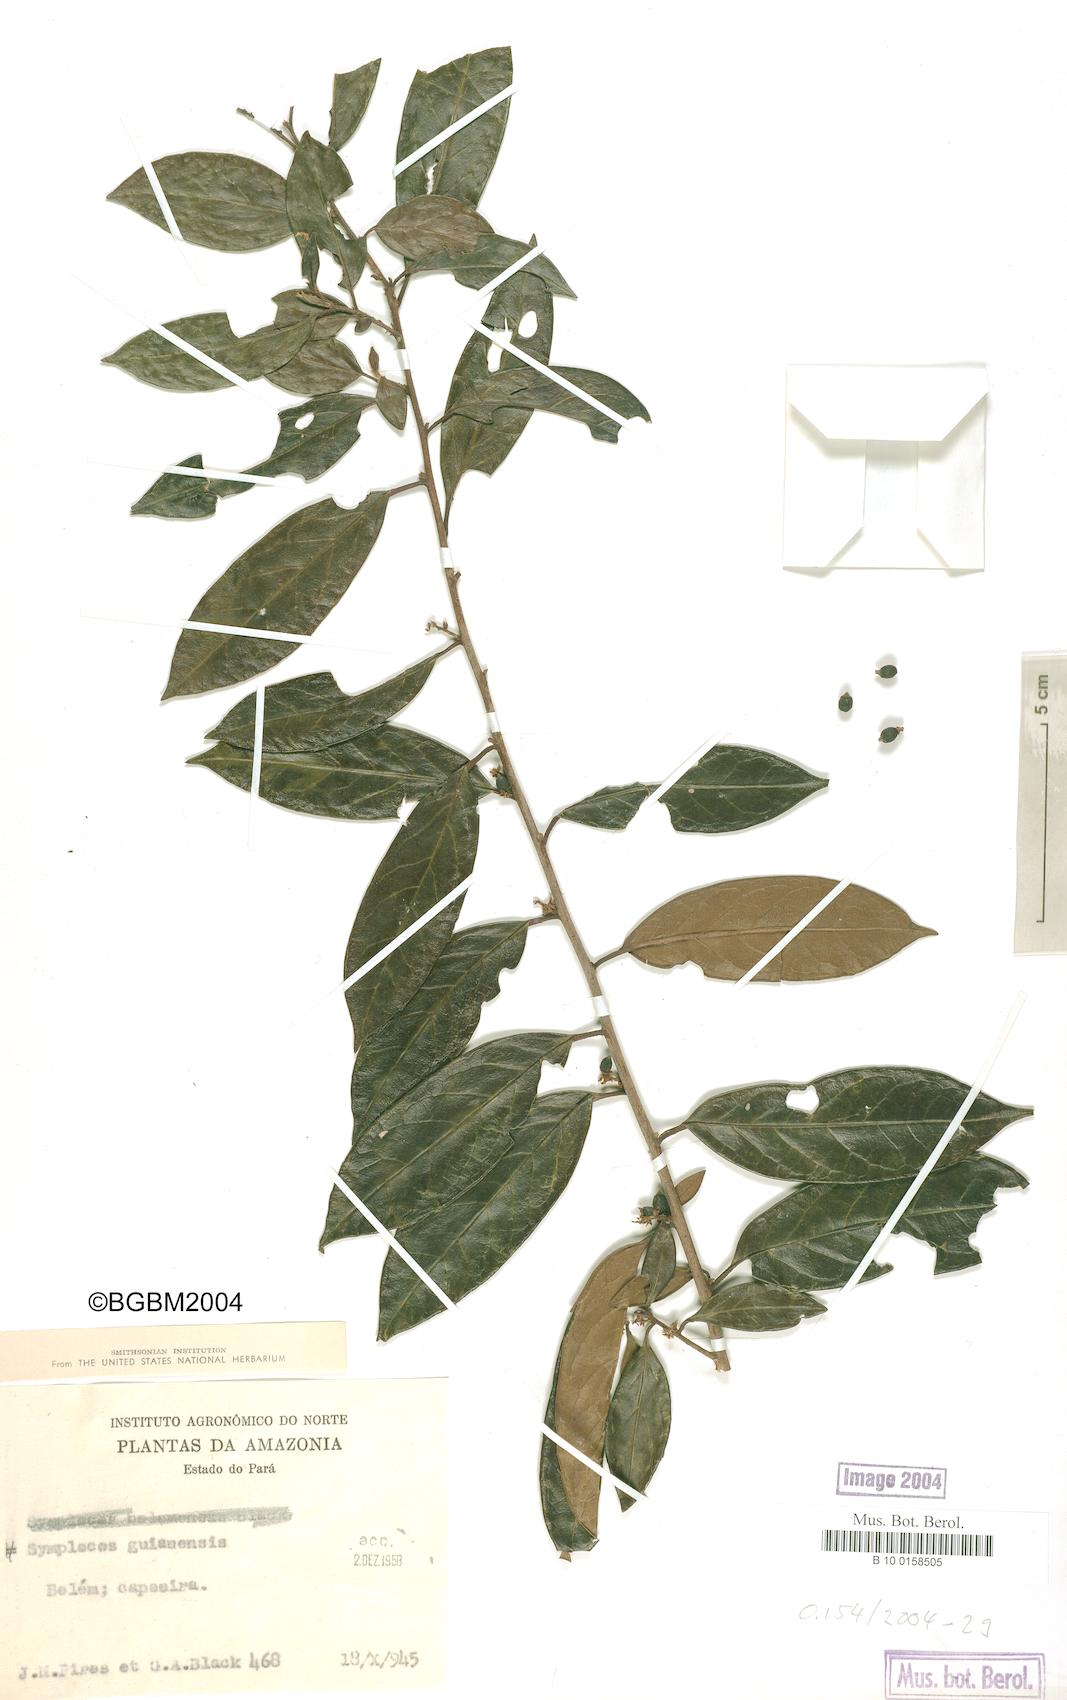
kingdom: Plantae
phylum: Tracheophyta
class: Magnoliopsida
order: Ericales
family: Symplocaceae
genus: Symplocos
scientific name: Symplocos guianensis
